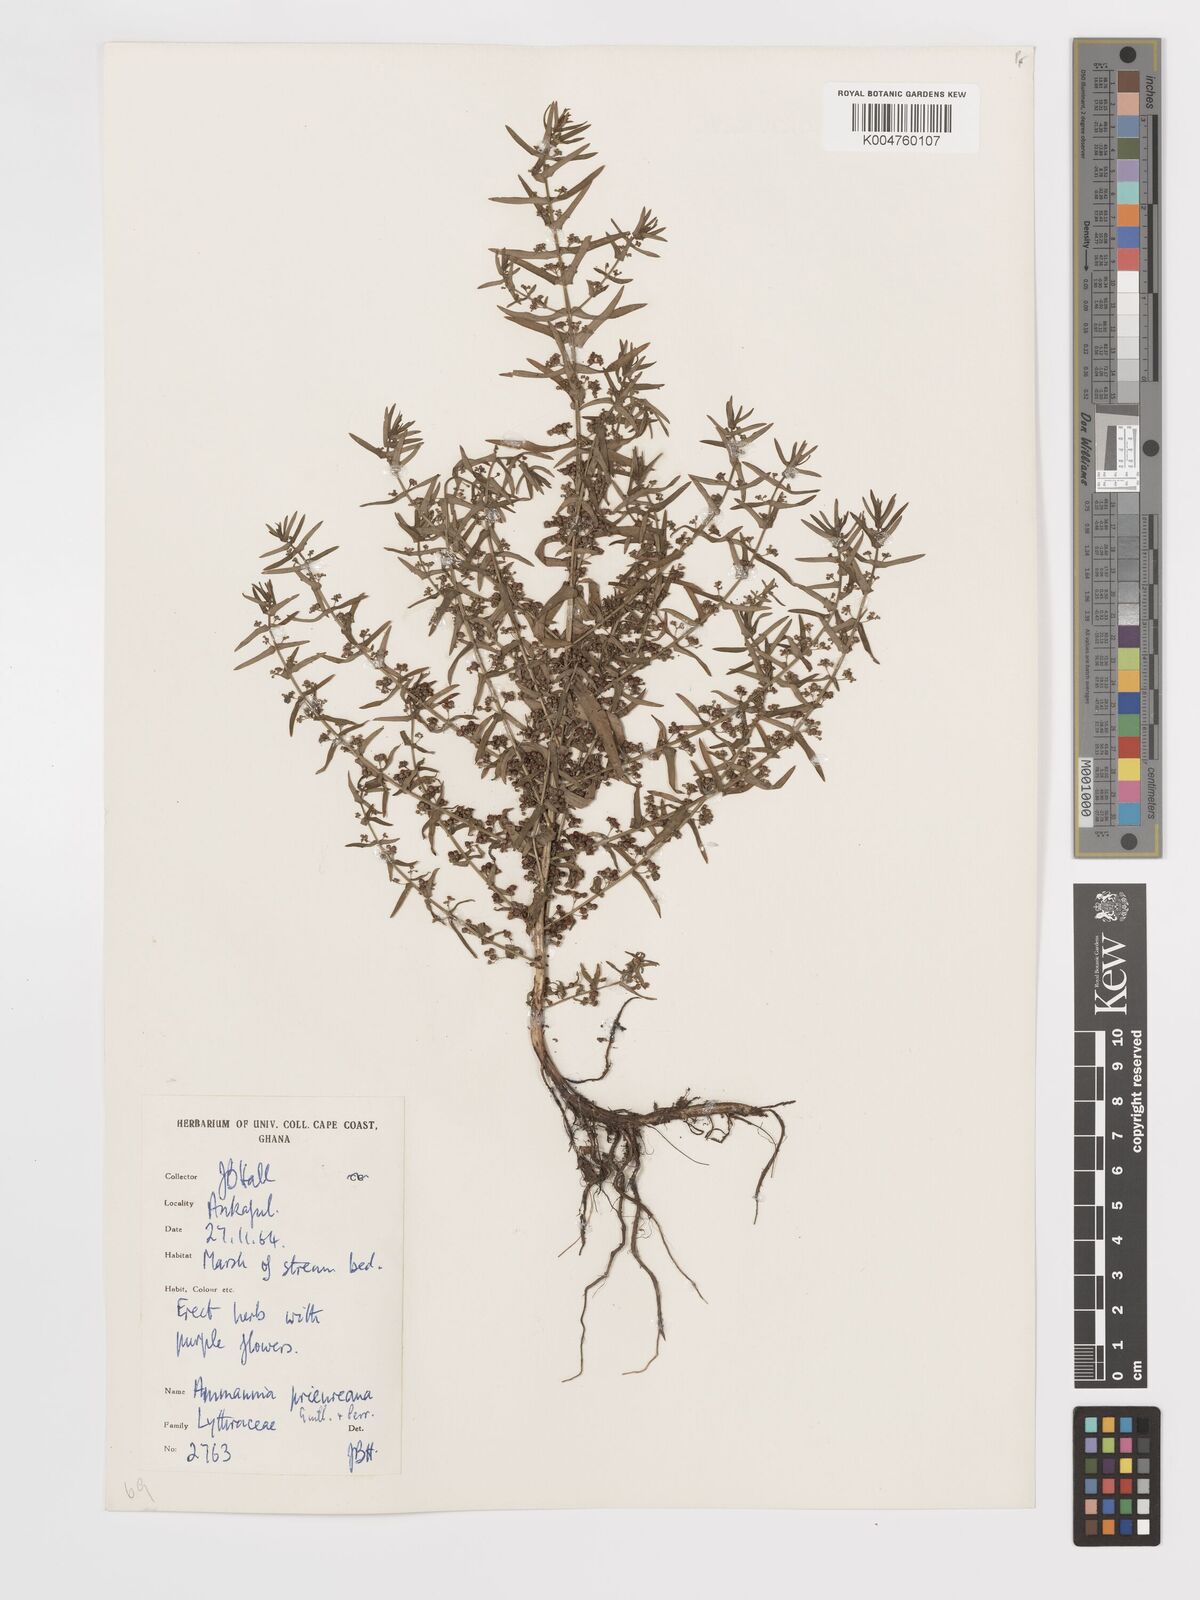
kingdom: Plantae
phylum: Tracheophyta
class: Magnoliopsida
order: Myrtales
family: Lythraceae
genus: Ammannia
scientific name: Ammannia prieuriana
